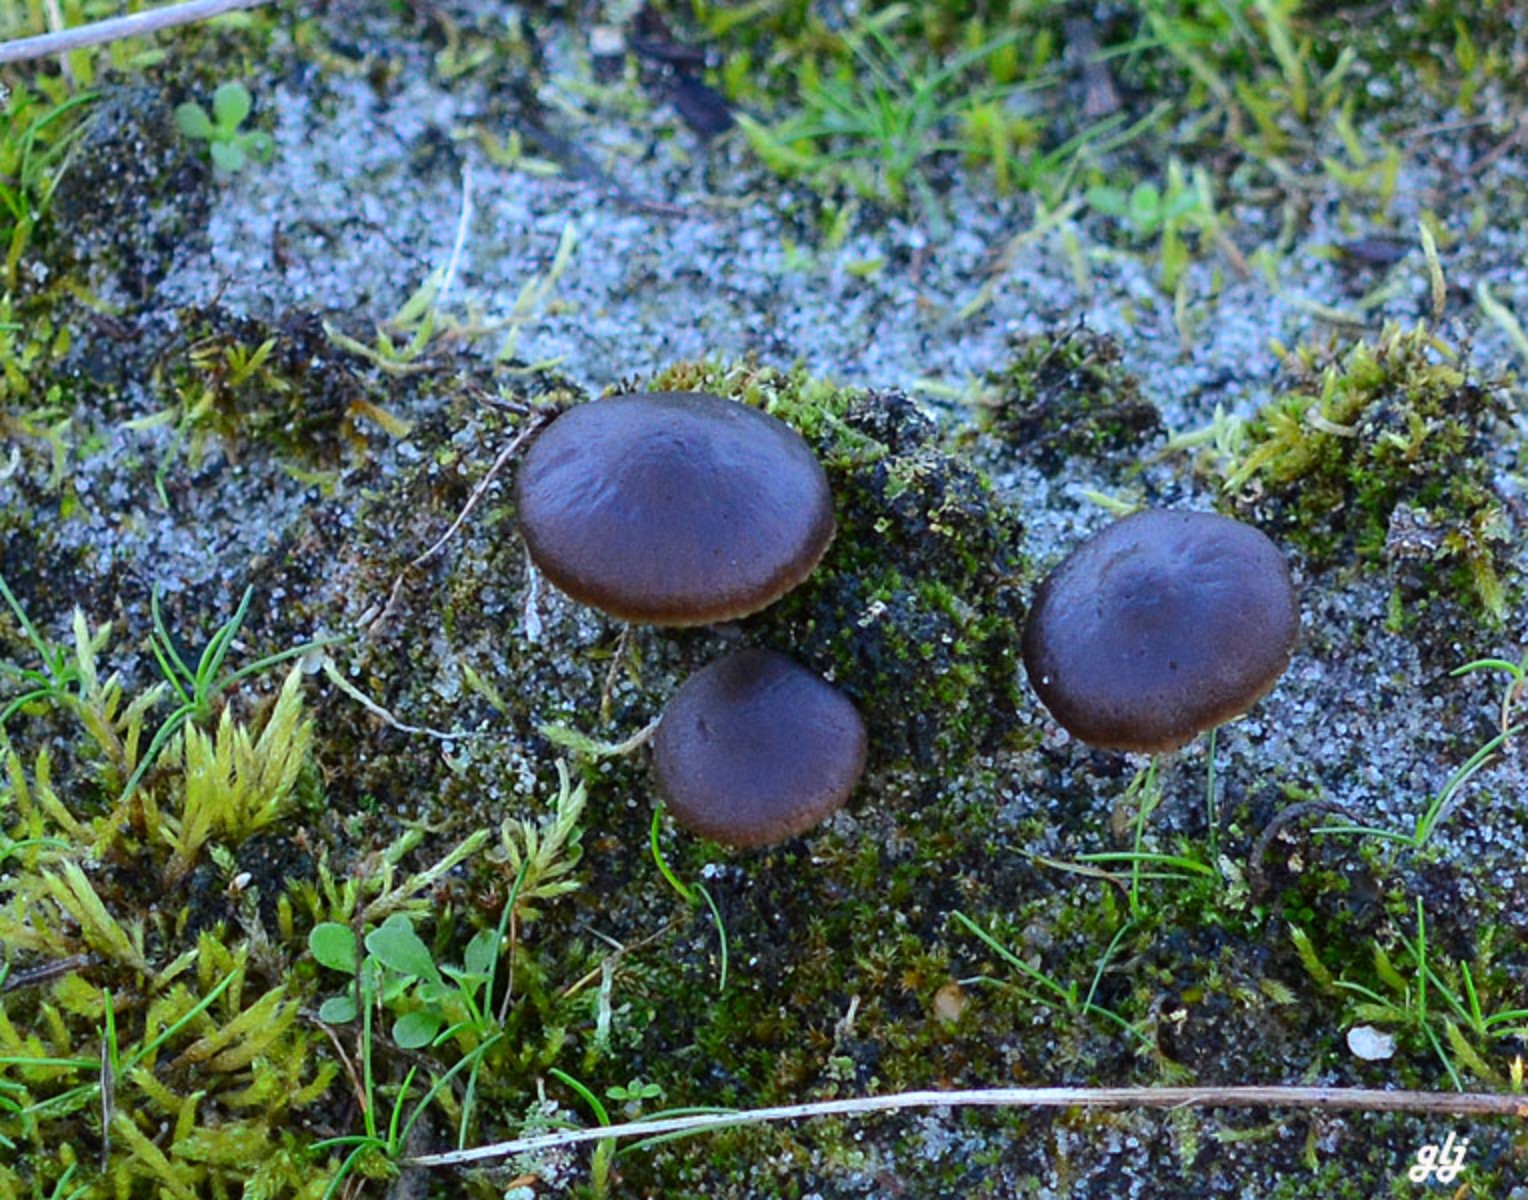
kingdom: Fungi
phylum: Basidiomycota
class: Agaricomycetes
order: Agaricales
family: Entolomataceae
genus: Entoloma
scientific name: Entoloma
